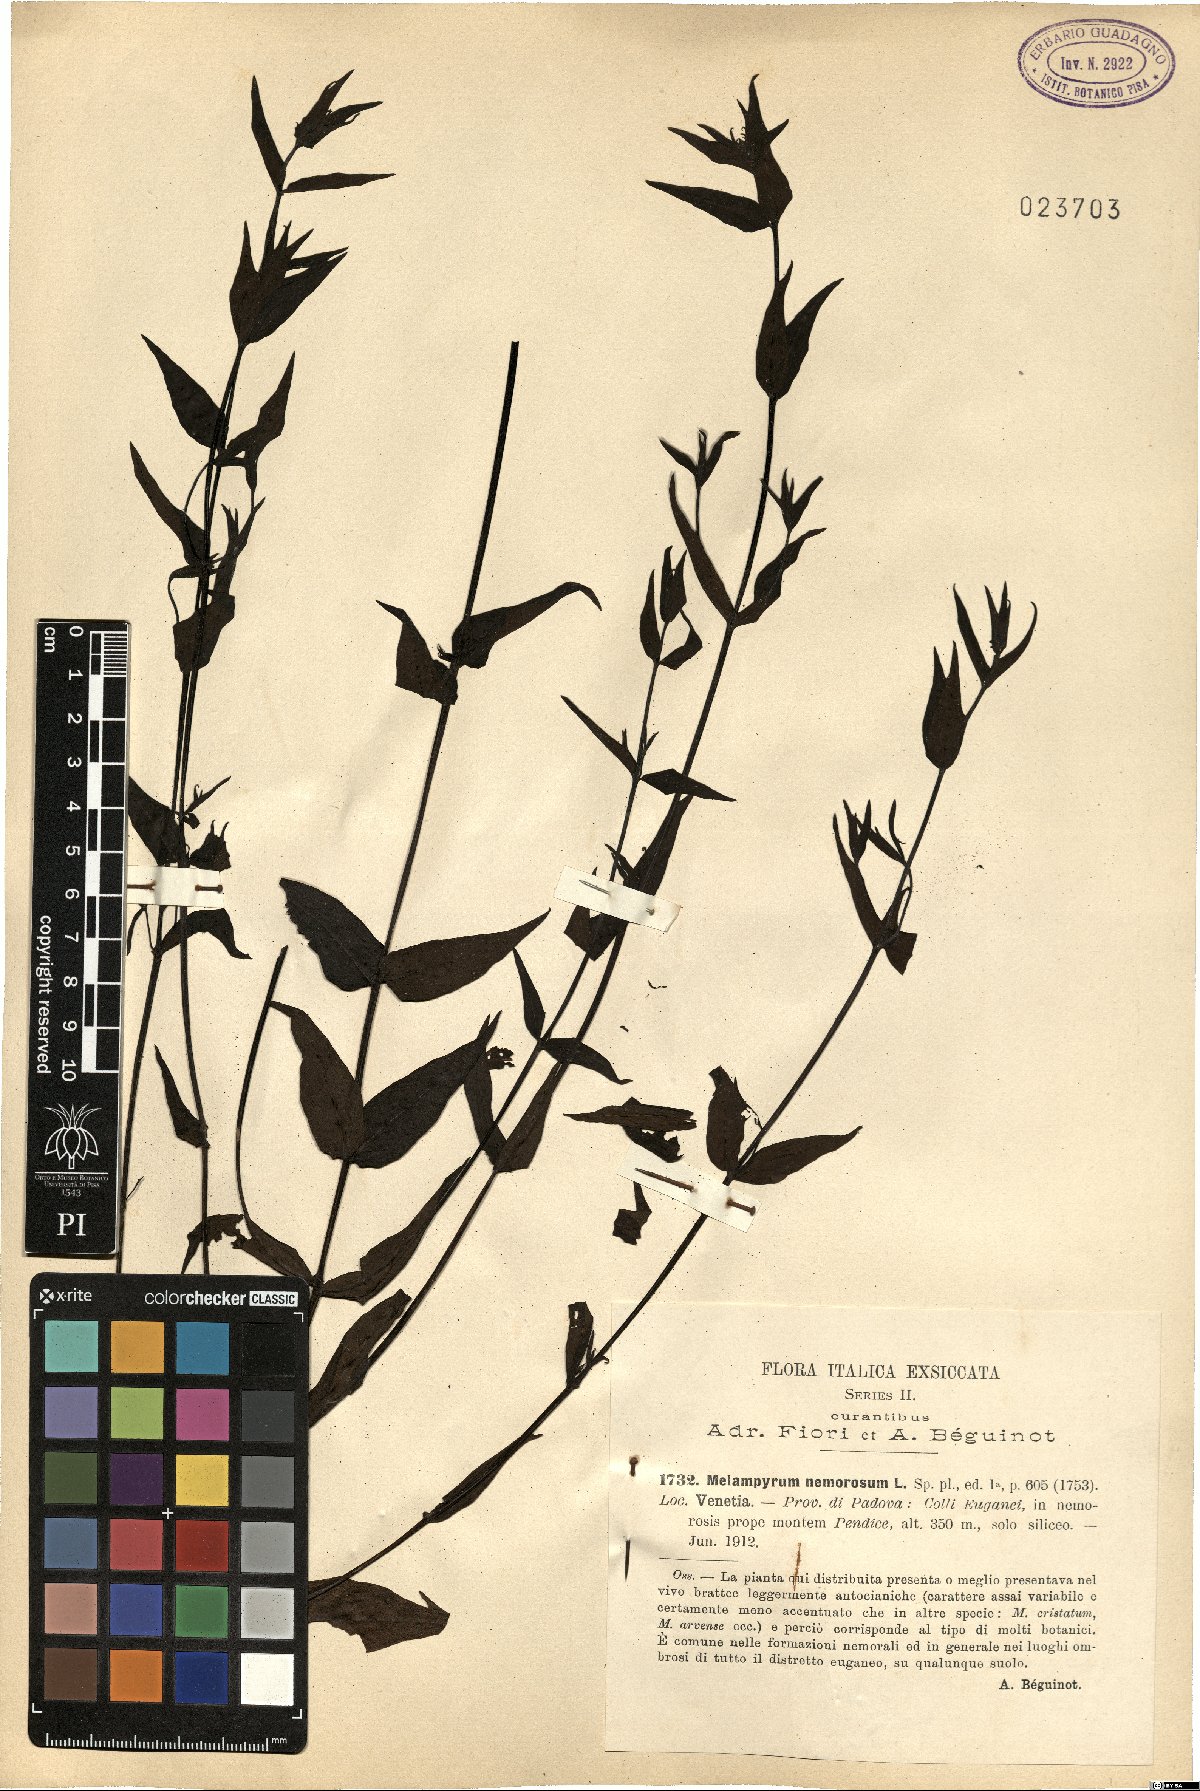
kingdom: Plantae
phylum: Tracheophyta
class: Magnoliopsida
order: Lamiales
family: Orobanchaceae
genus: Melampyrum
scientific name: Melampyrum nemorosum
